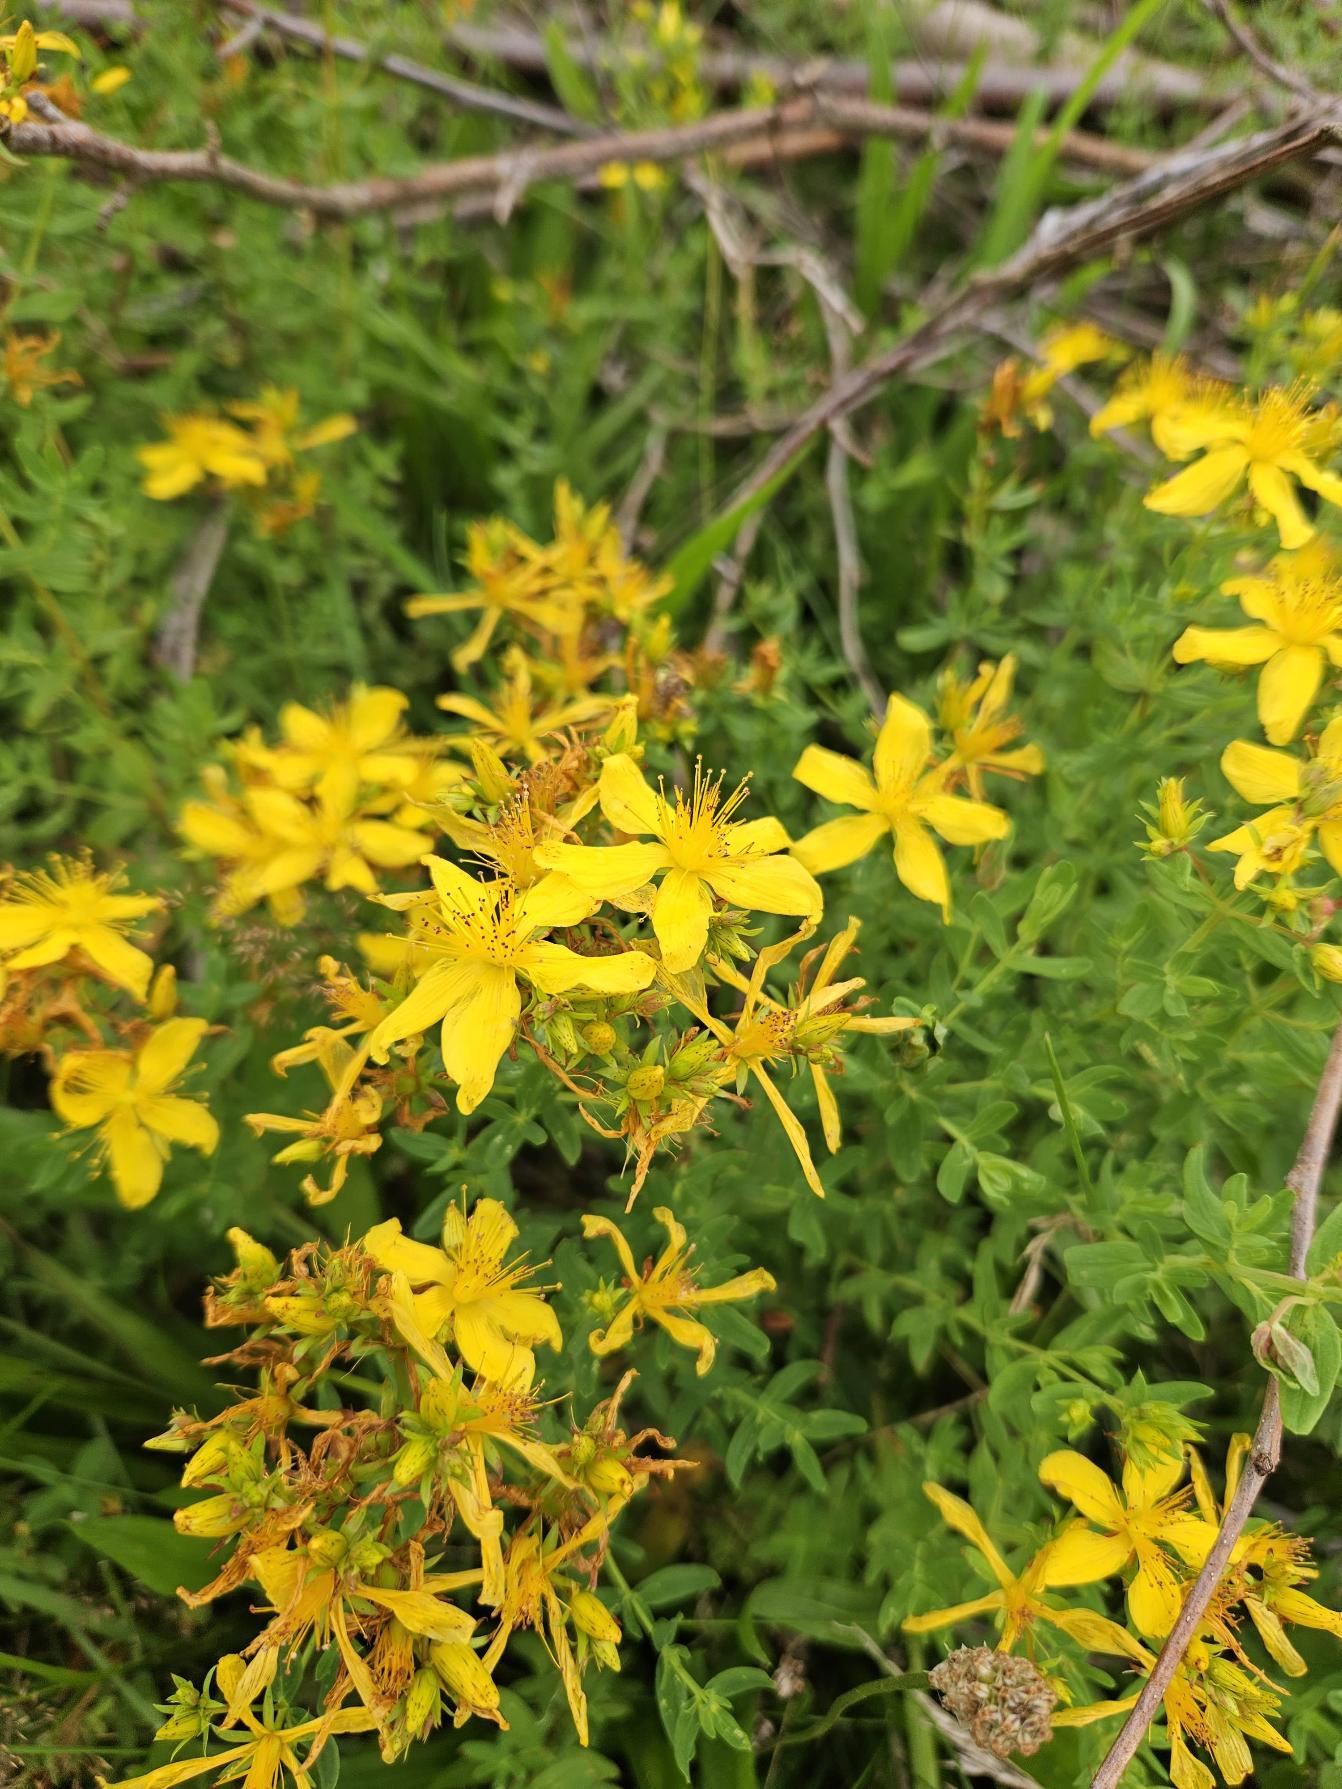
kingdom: Plantae
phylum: Tracheophyta
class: Magnoliopsida
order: Malpighiales
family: Hypericaceae
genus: Hypericum
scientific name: Hypericum perforatum
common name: Prikbladet perikon
